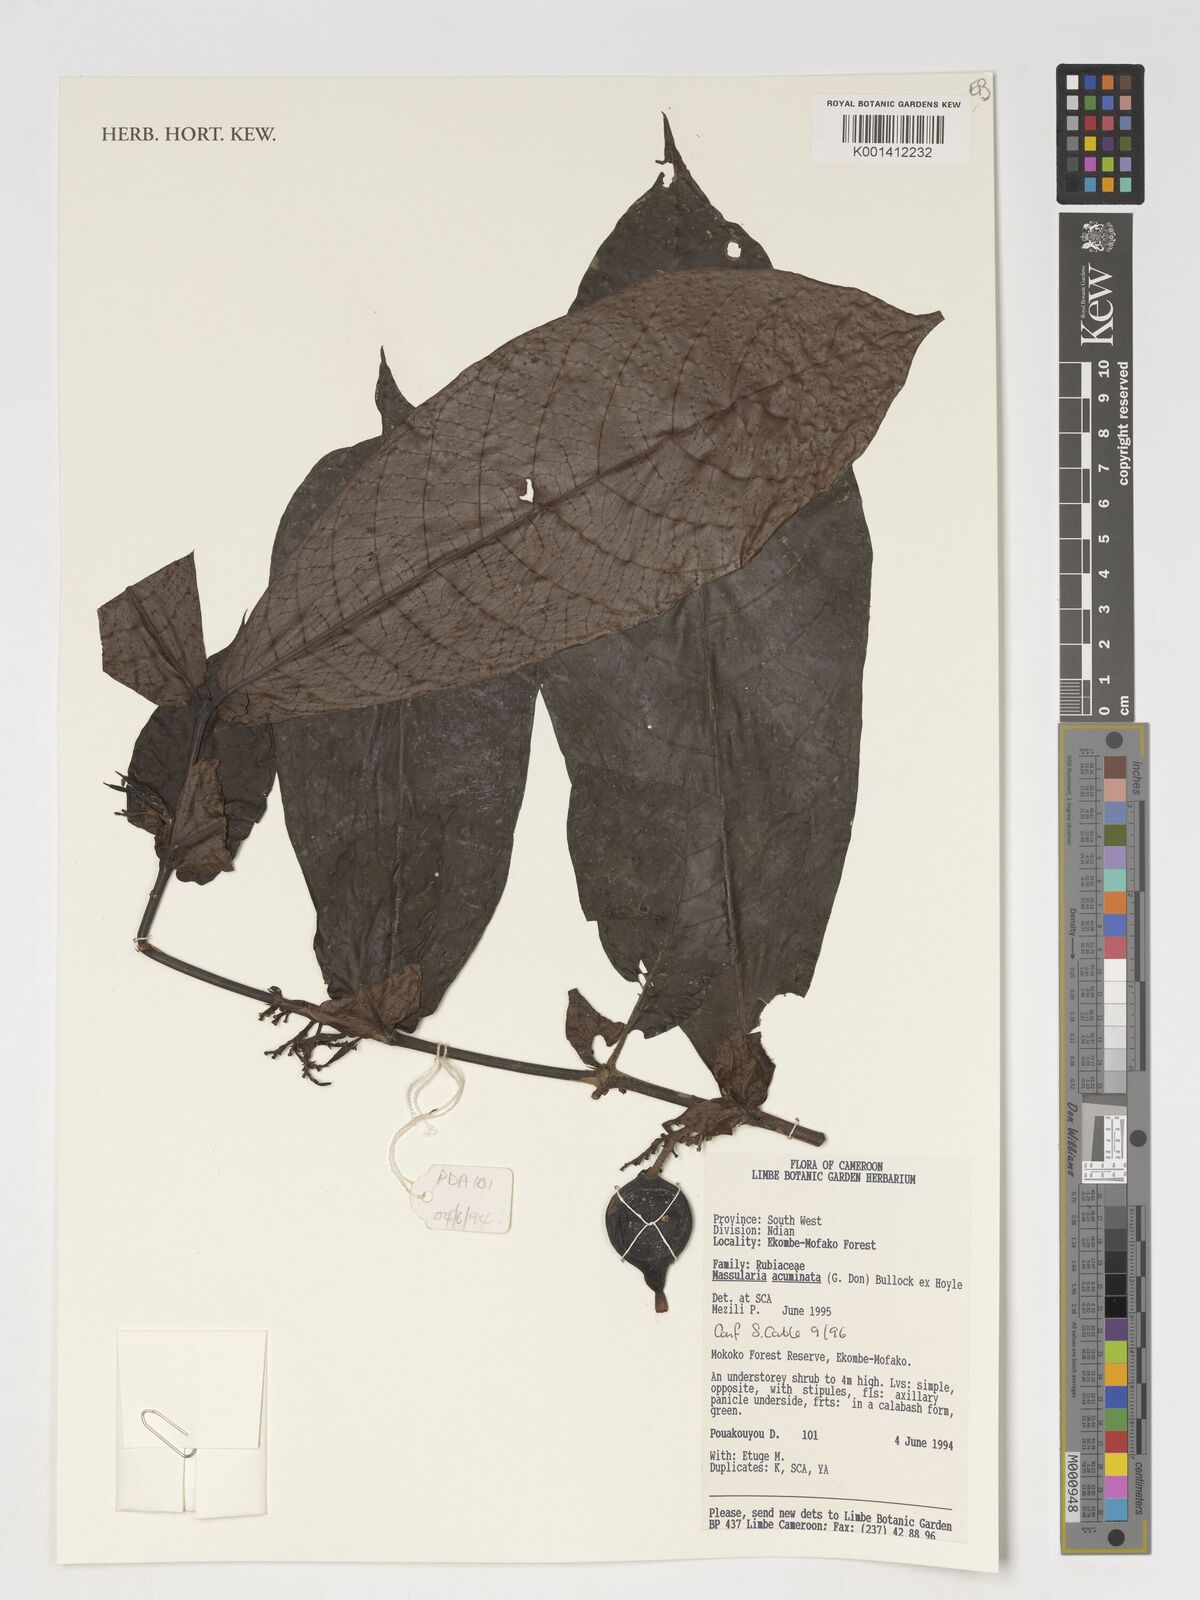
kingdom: Plantae
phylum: Tracheophyta
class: Magnoliopsida
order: Gentianales
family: Rubiaceae
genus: Massularia
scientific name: Massularia acuminata
